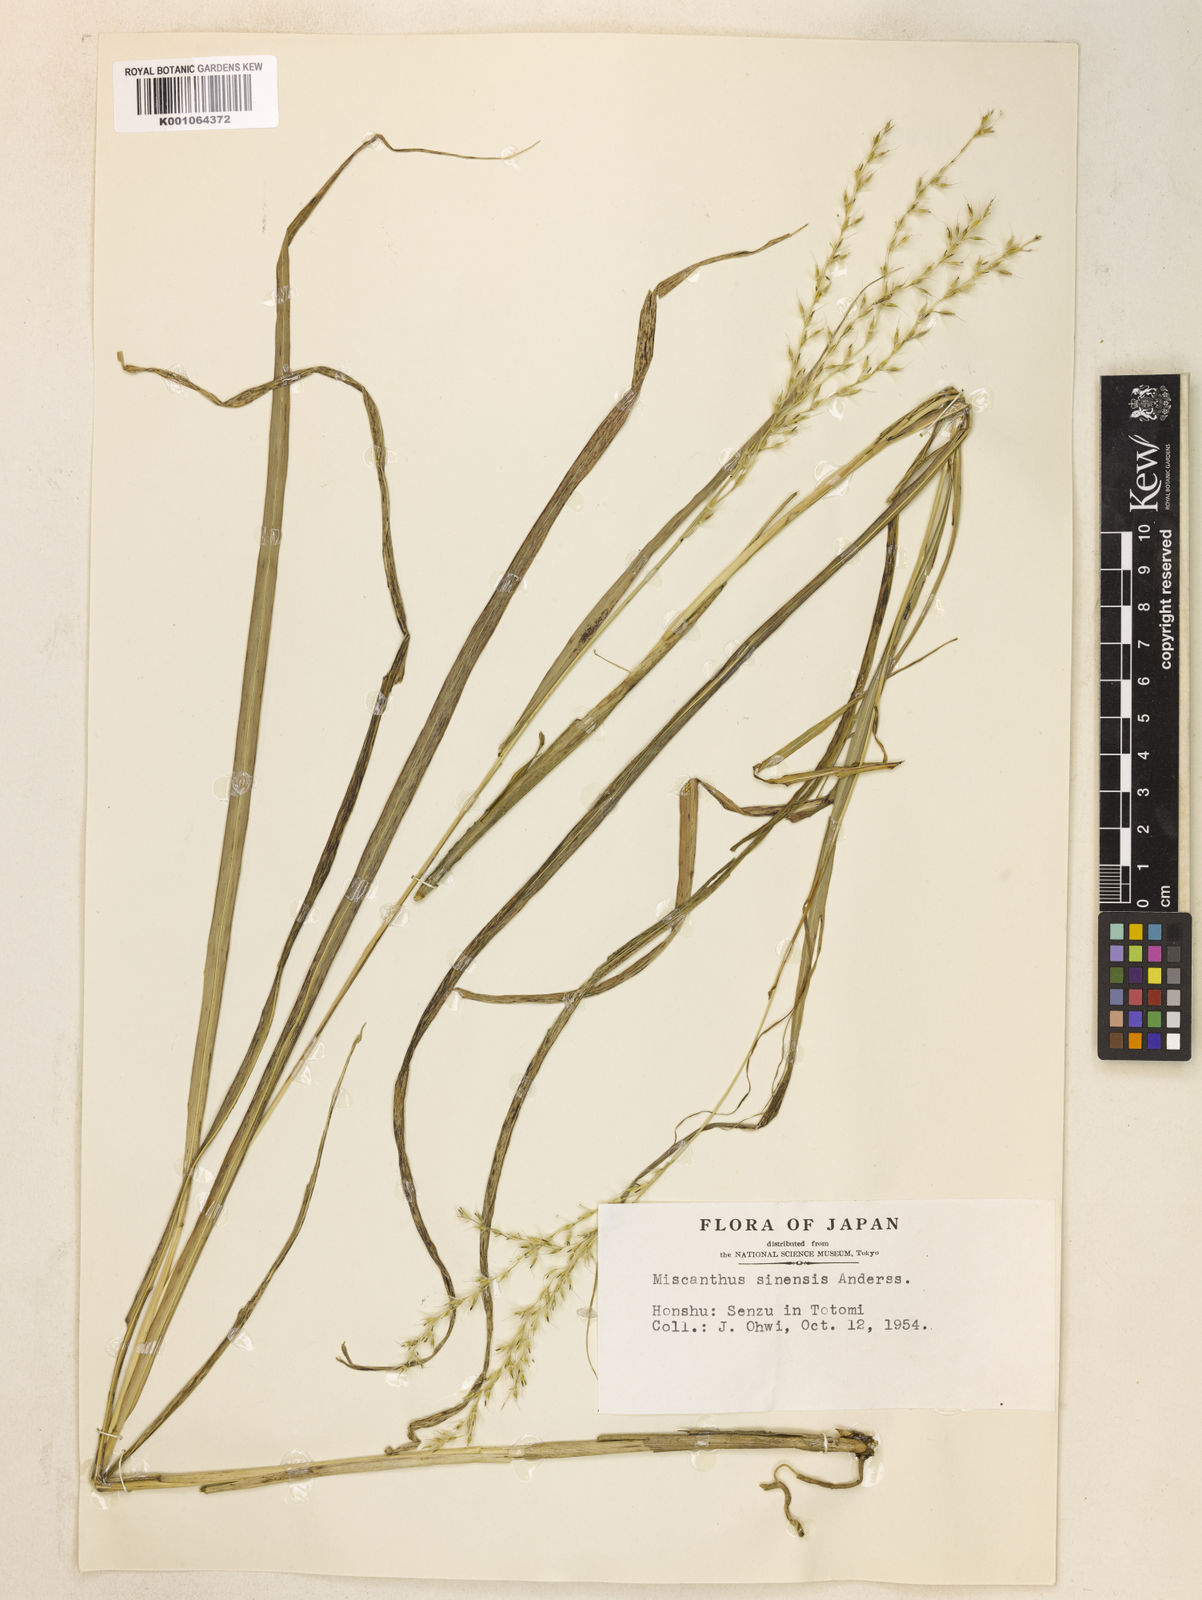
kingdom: Plantae
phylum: Tracheophyta
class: Liliopsida
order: Poales
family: Poaceae
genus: Miscanthus
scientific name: Miscanthus sinensis
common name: Chinese silvergrass
